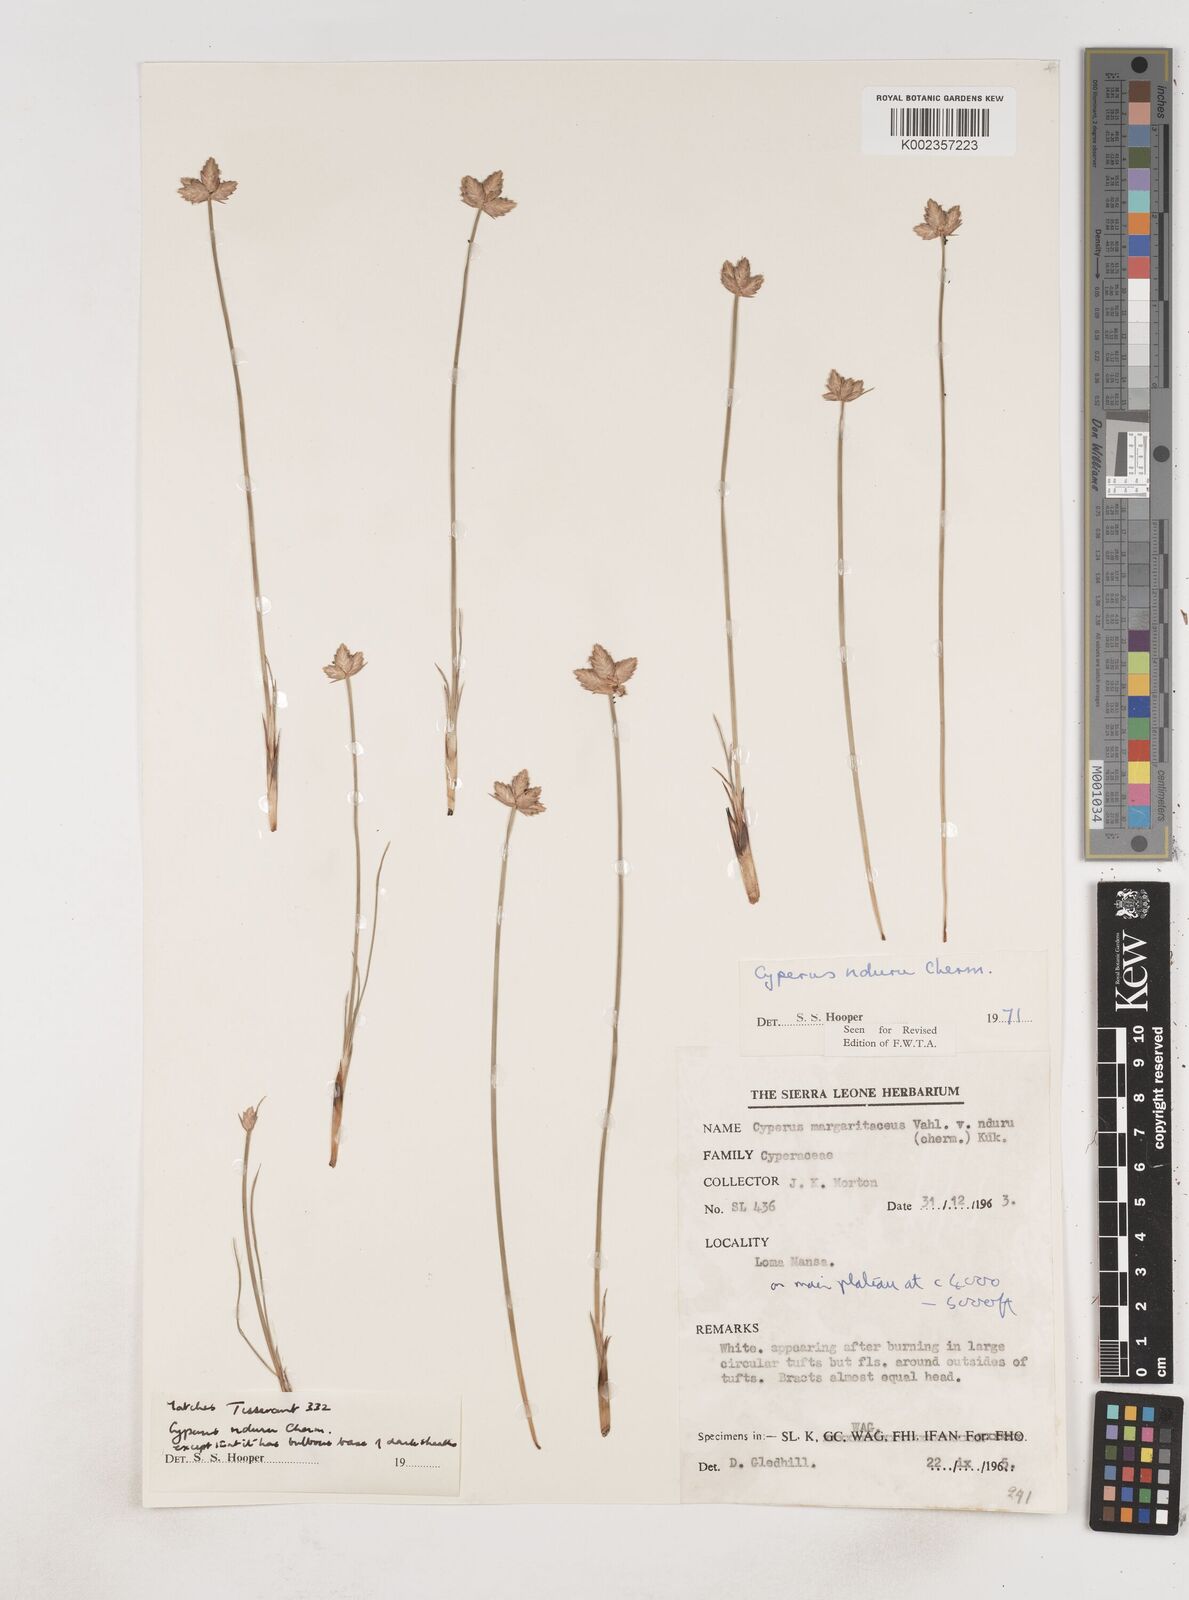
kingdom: Plantae
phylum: Tracheophyta
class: Liliopsida
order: Poales
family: Cyperaceae
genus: Cyperus
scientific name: Cyperus nduru
